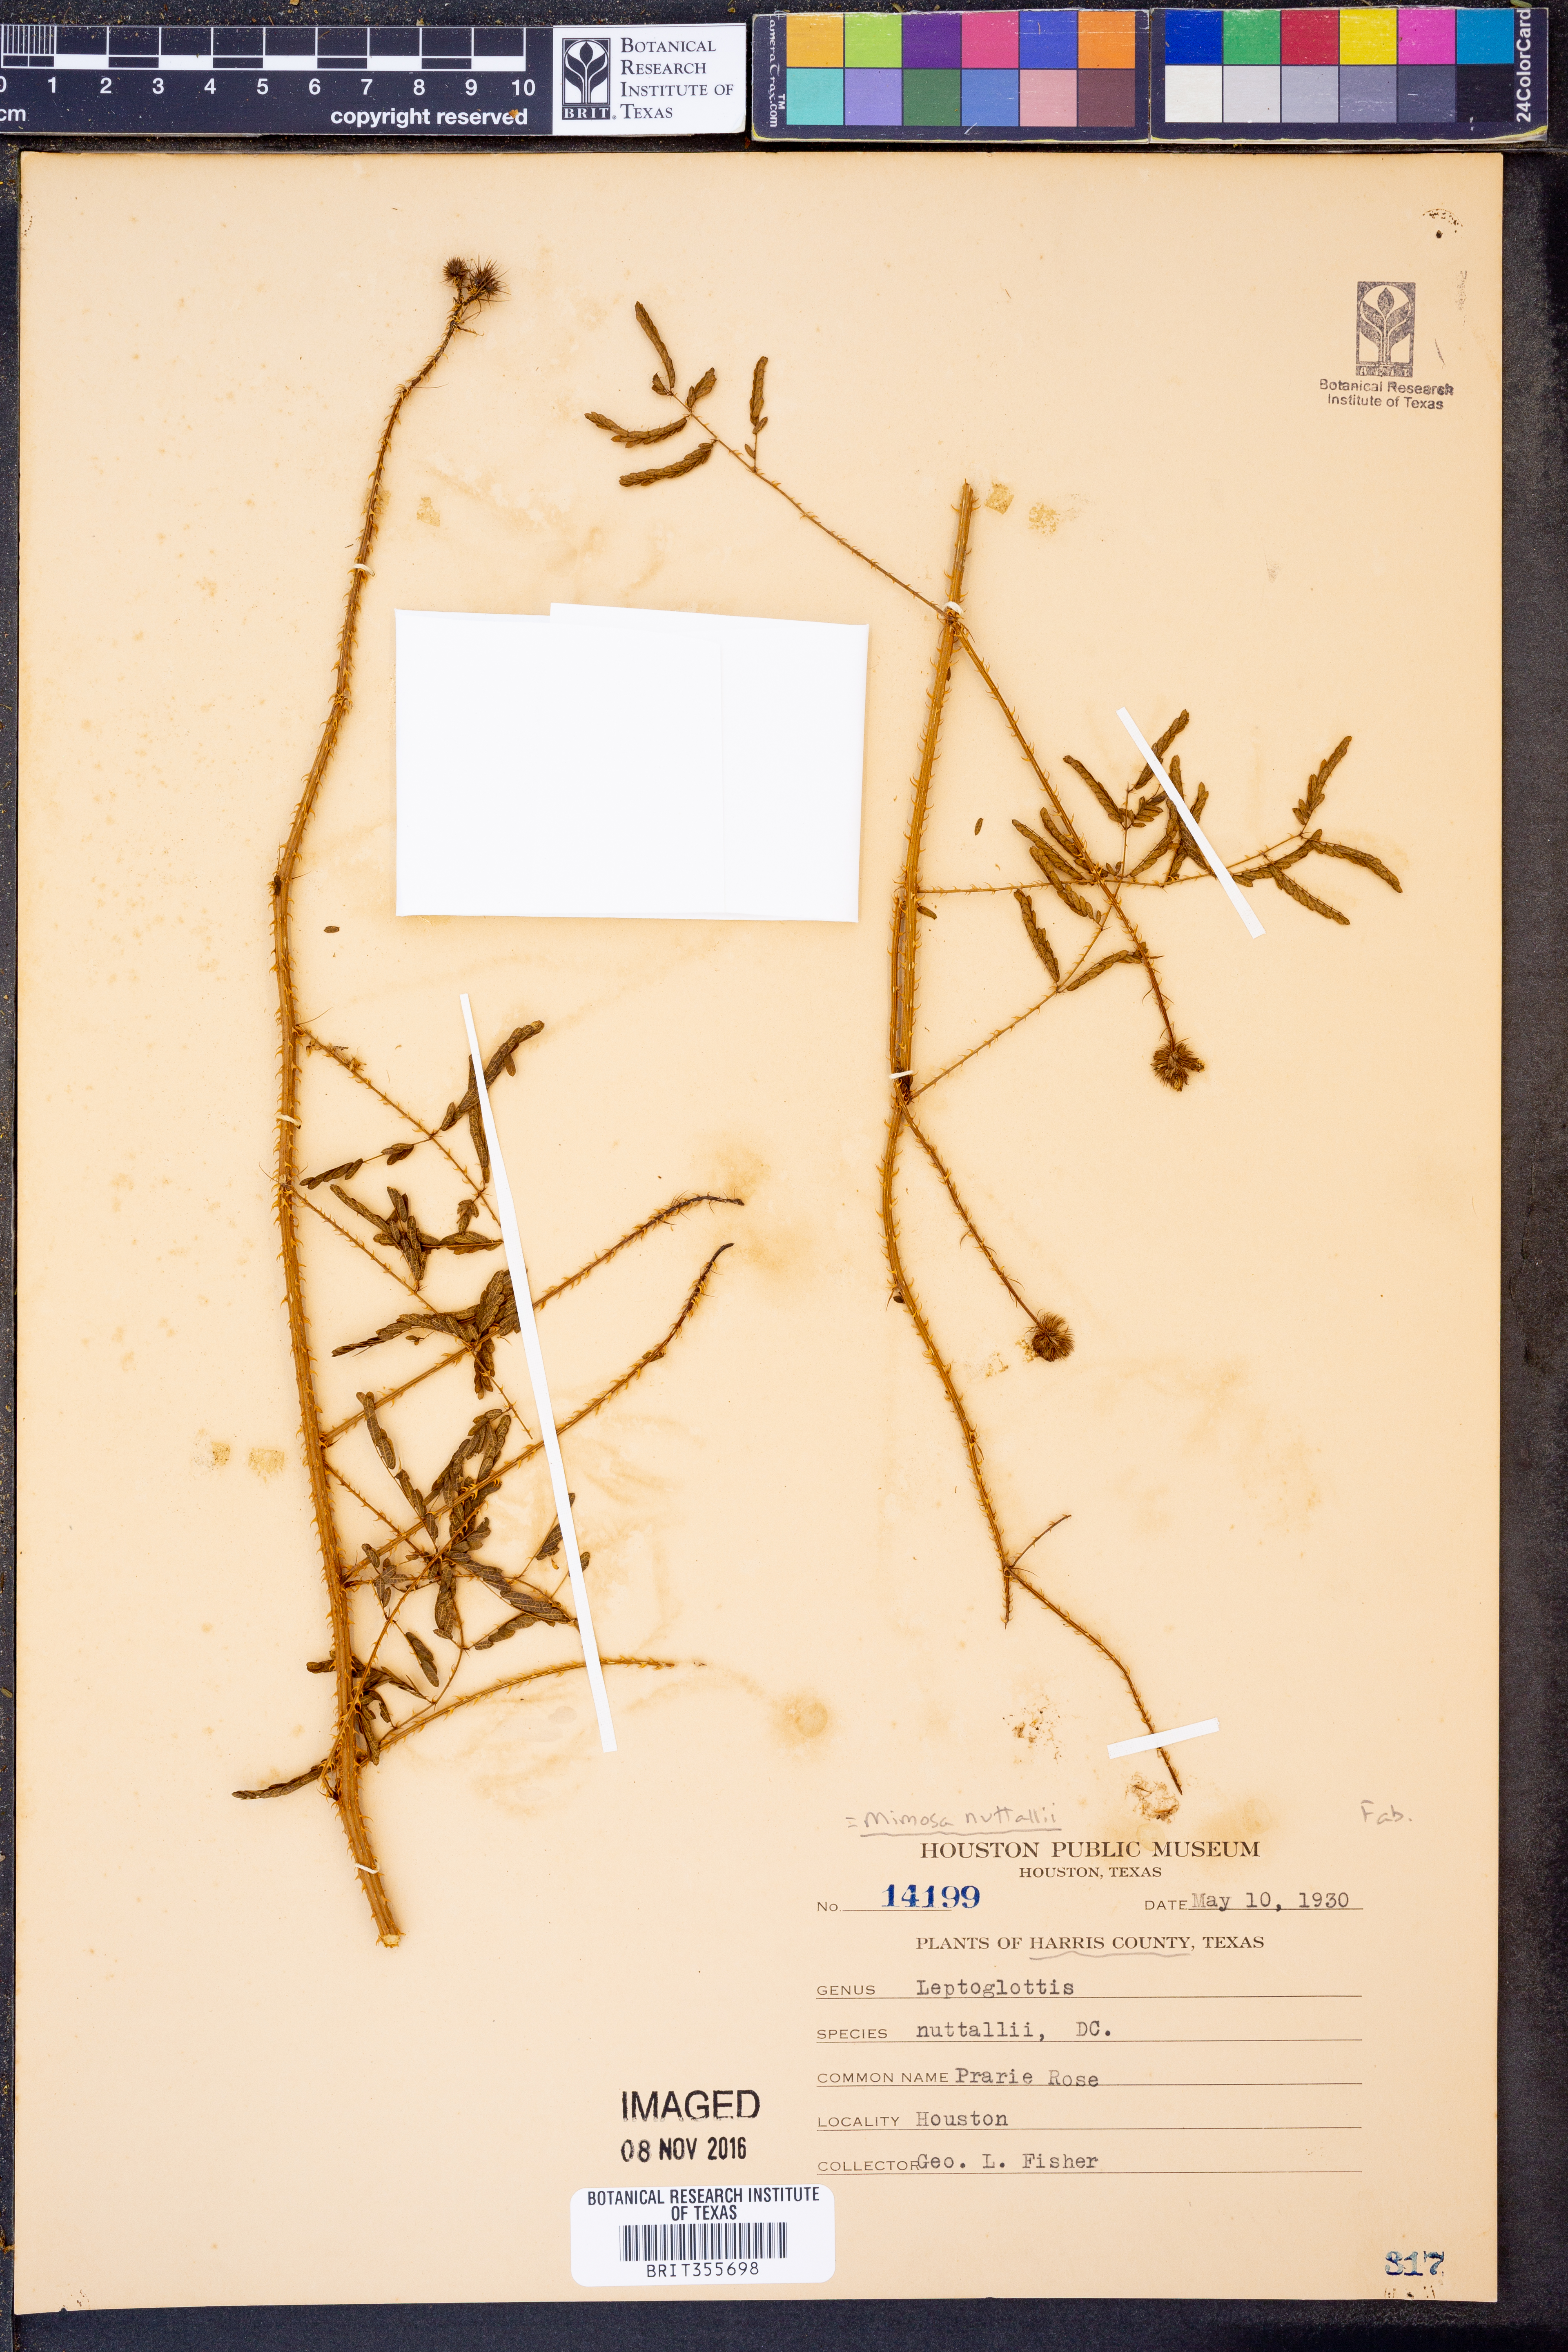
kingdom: Plantae
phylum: Tracheophyta
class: Magnoliopsida
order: Fabales
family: Fabaceae
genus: Mimosa
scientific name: Mimosa quadrivalvis
